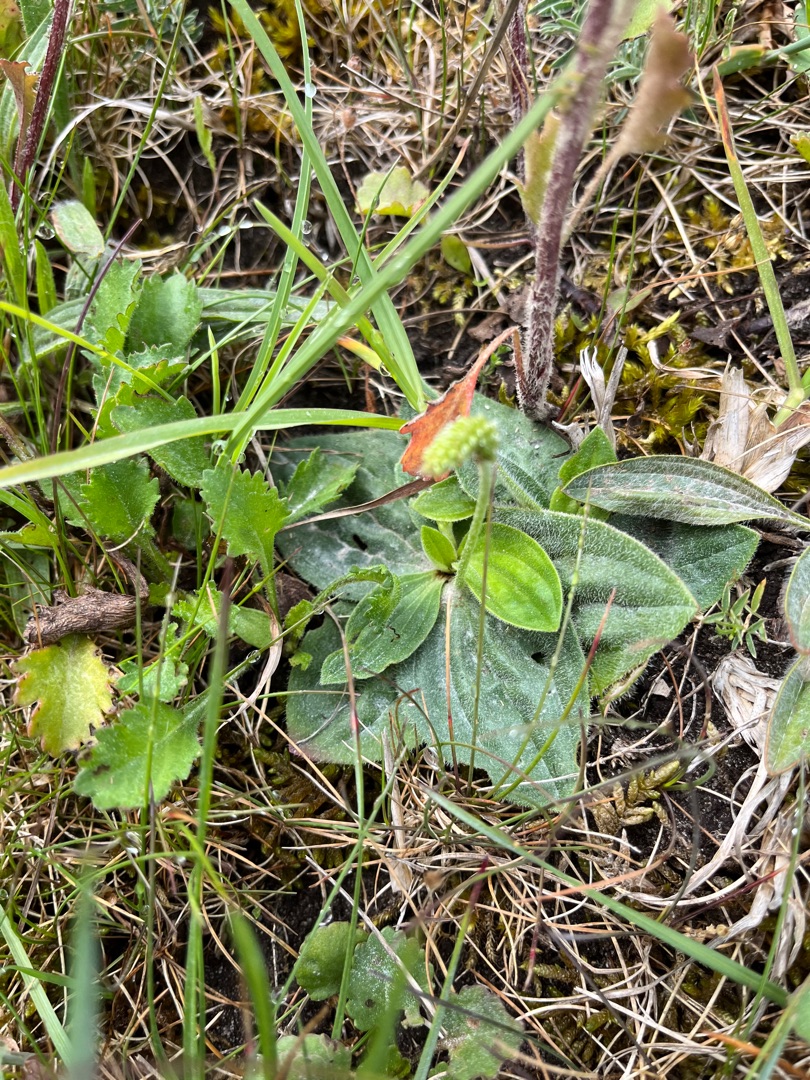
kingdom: Plantae
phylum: Tracheophyta
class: Magnoliopsida
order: Lamiales
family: Plantaginaceae
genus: Plantago
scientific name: Plantago media
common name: Dunet vejbred
